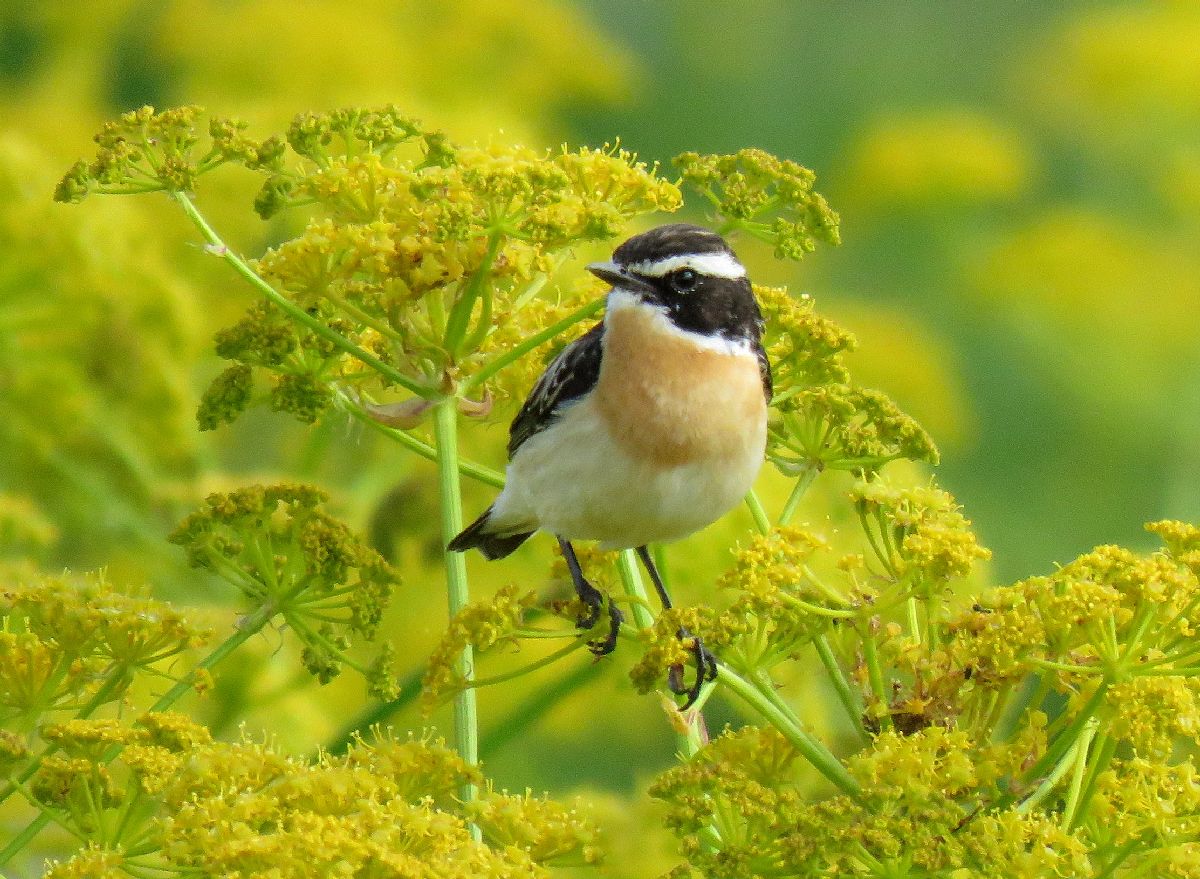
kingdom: Animalia
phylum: Chordata
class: Aves
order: Passeriformes
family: Muscicapidae
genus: Saxicola
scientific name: Saxicola rubetra
